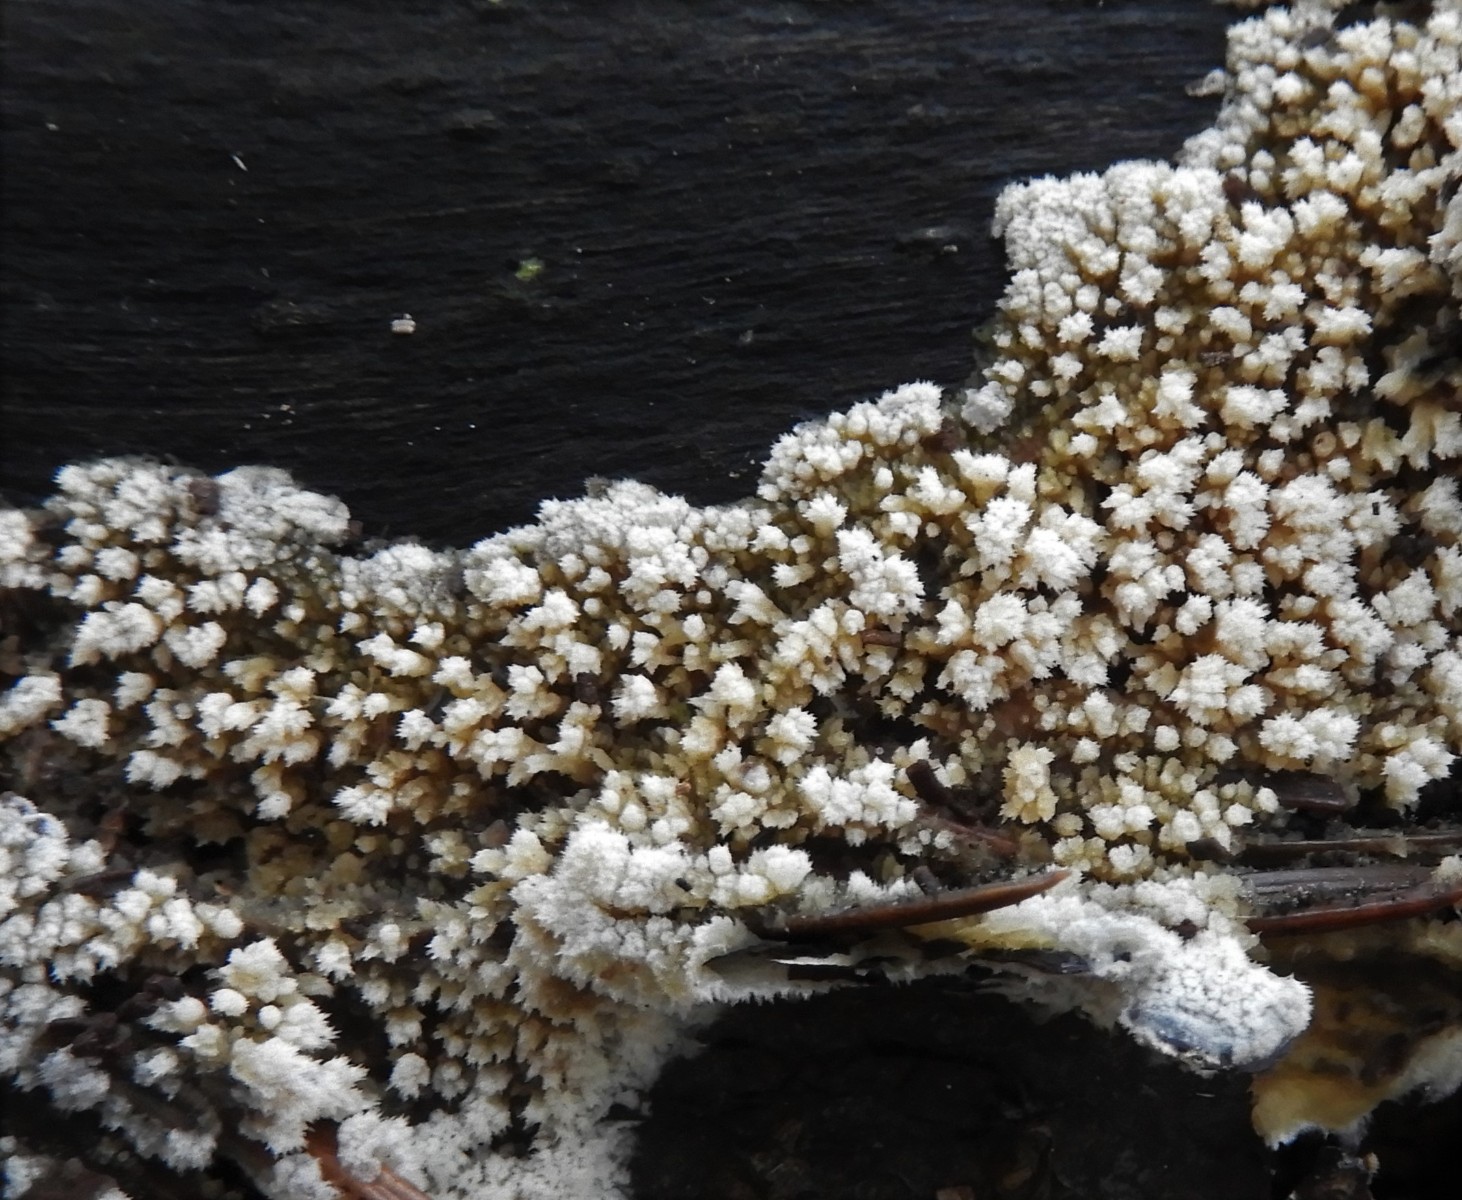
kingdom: Fungi
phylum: Basidiomycota
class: Agaricomycetes
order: Corticiales
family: Corticiaceae
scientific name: Corticiaceae
